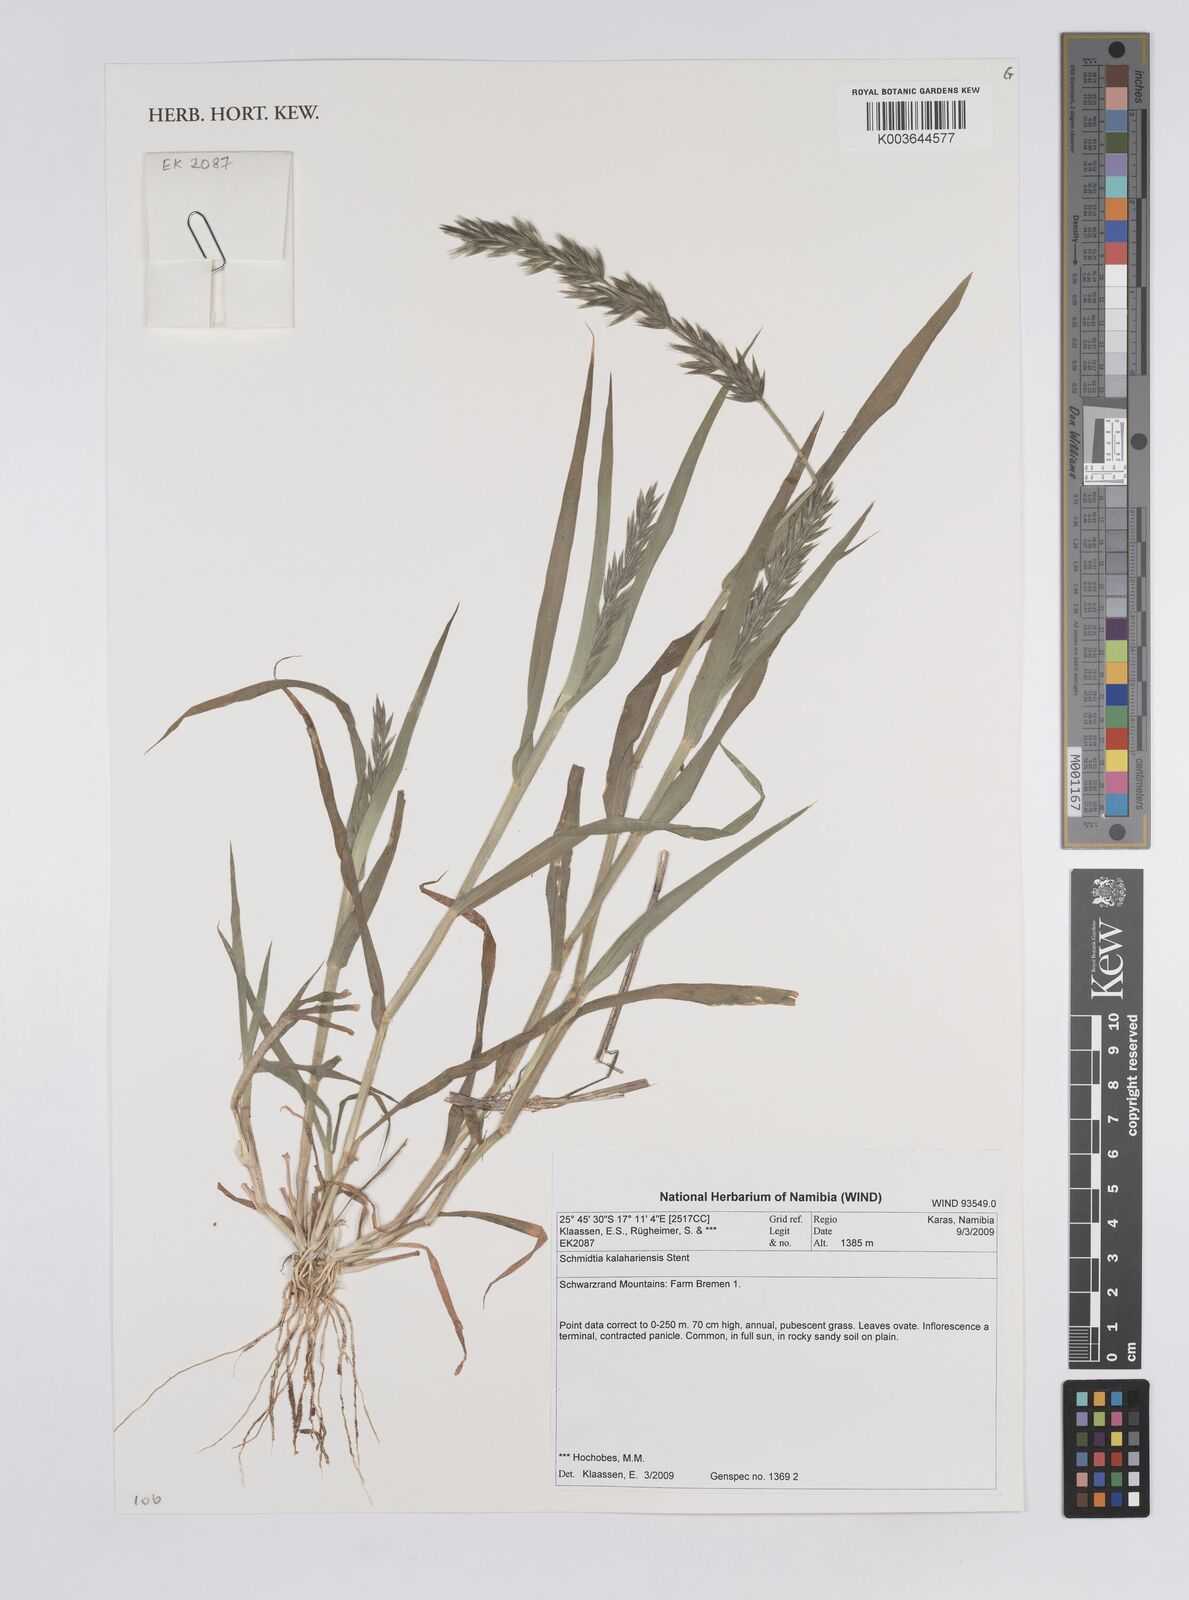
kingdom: Plantae
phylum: Tracheophyta
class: Liliopsida
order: Poales
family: Poaceae
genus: Schmidtia
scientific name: Schmidtia kalahariensis
